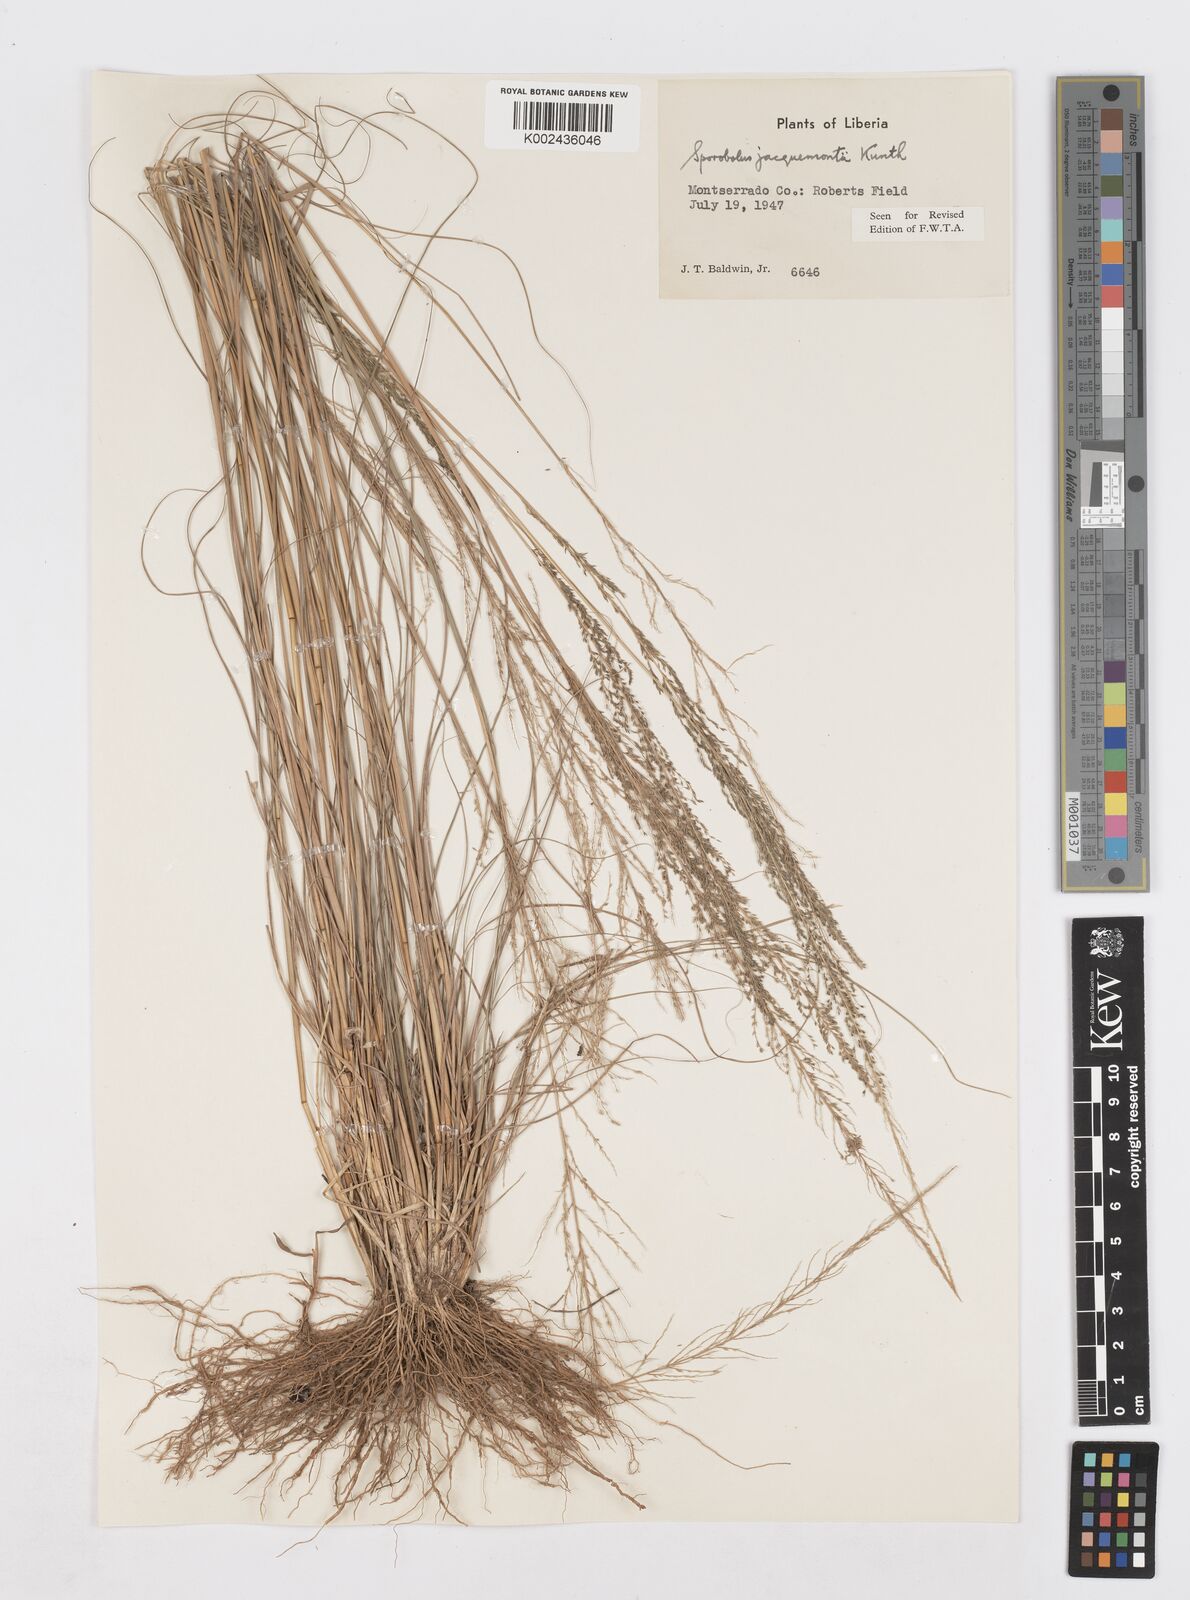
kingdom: Plantae
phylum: Tracheophyta
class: Liliopsida
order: Poales
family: Poaceae
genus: Sporobolus
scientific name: Sporobolus pyramidalis
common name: West indian dropseed
